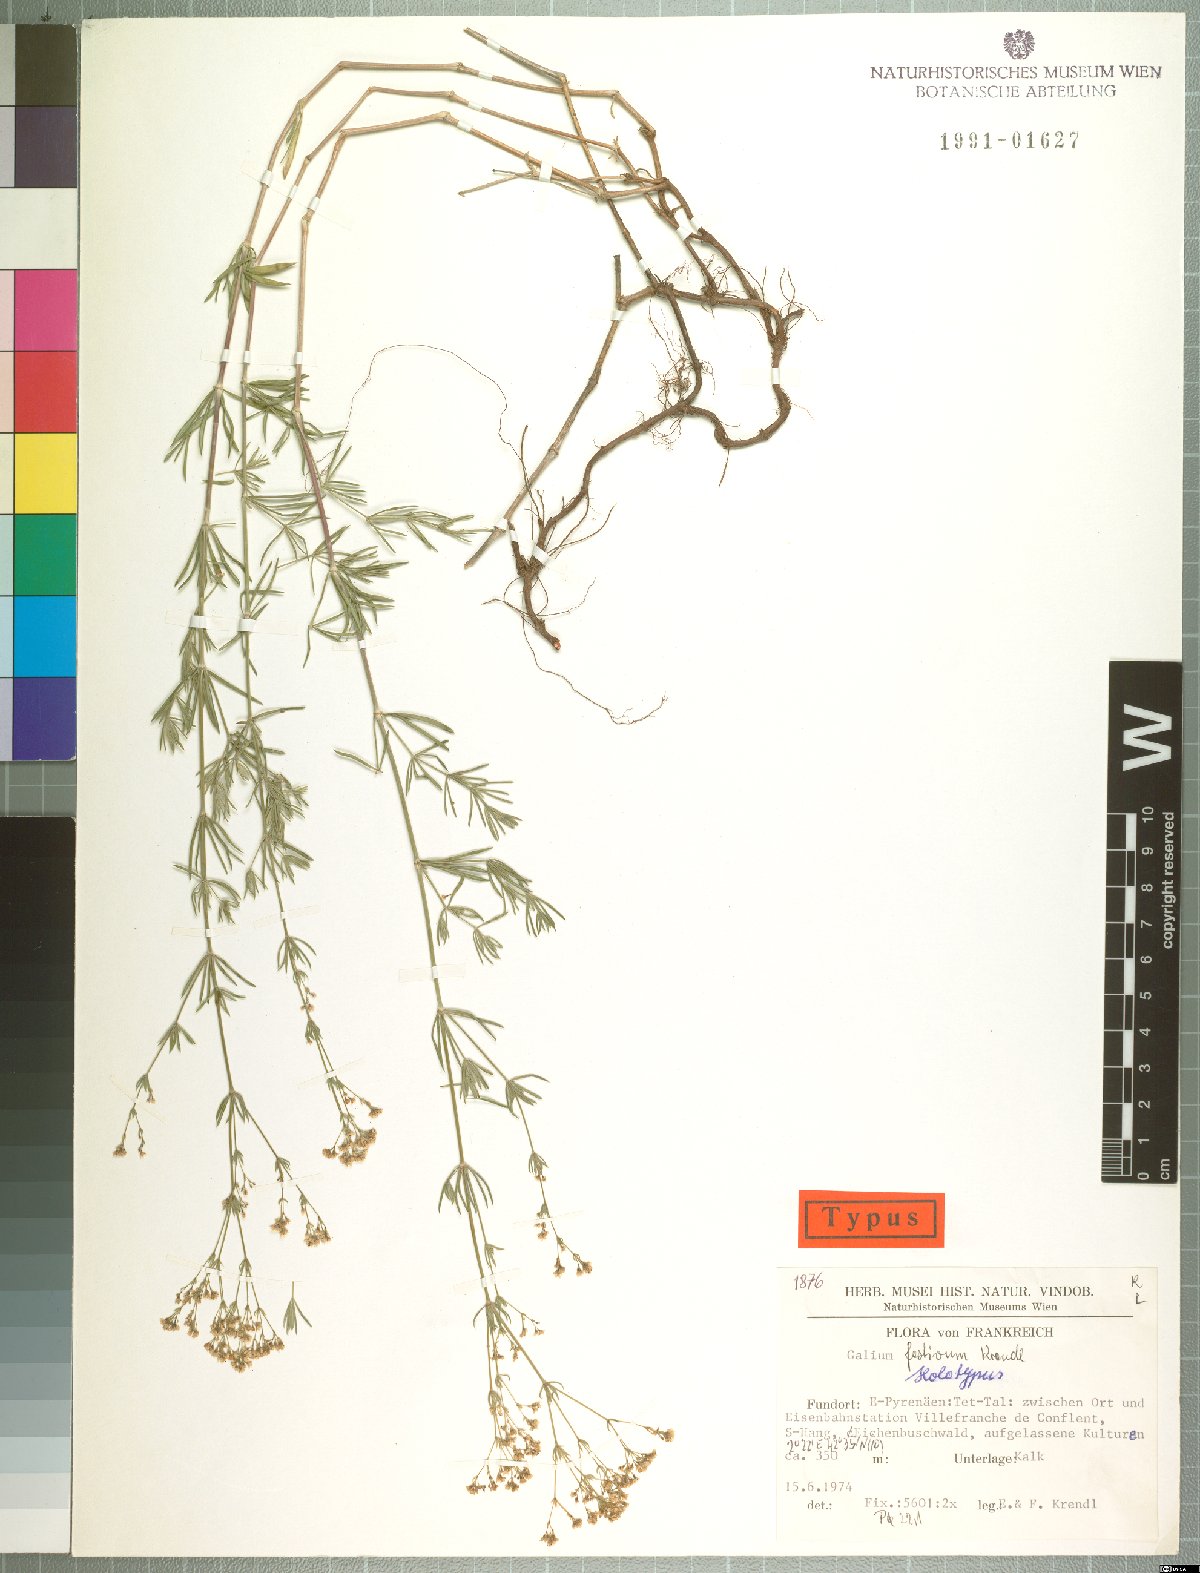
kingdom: Plantae
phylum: Tracheophyta
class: Magnoliopsida
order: Gentianales
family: Rubiaceae
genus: Galium
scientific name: Galium festivum
